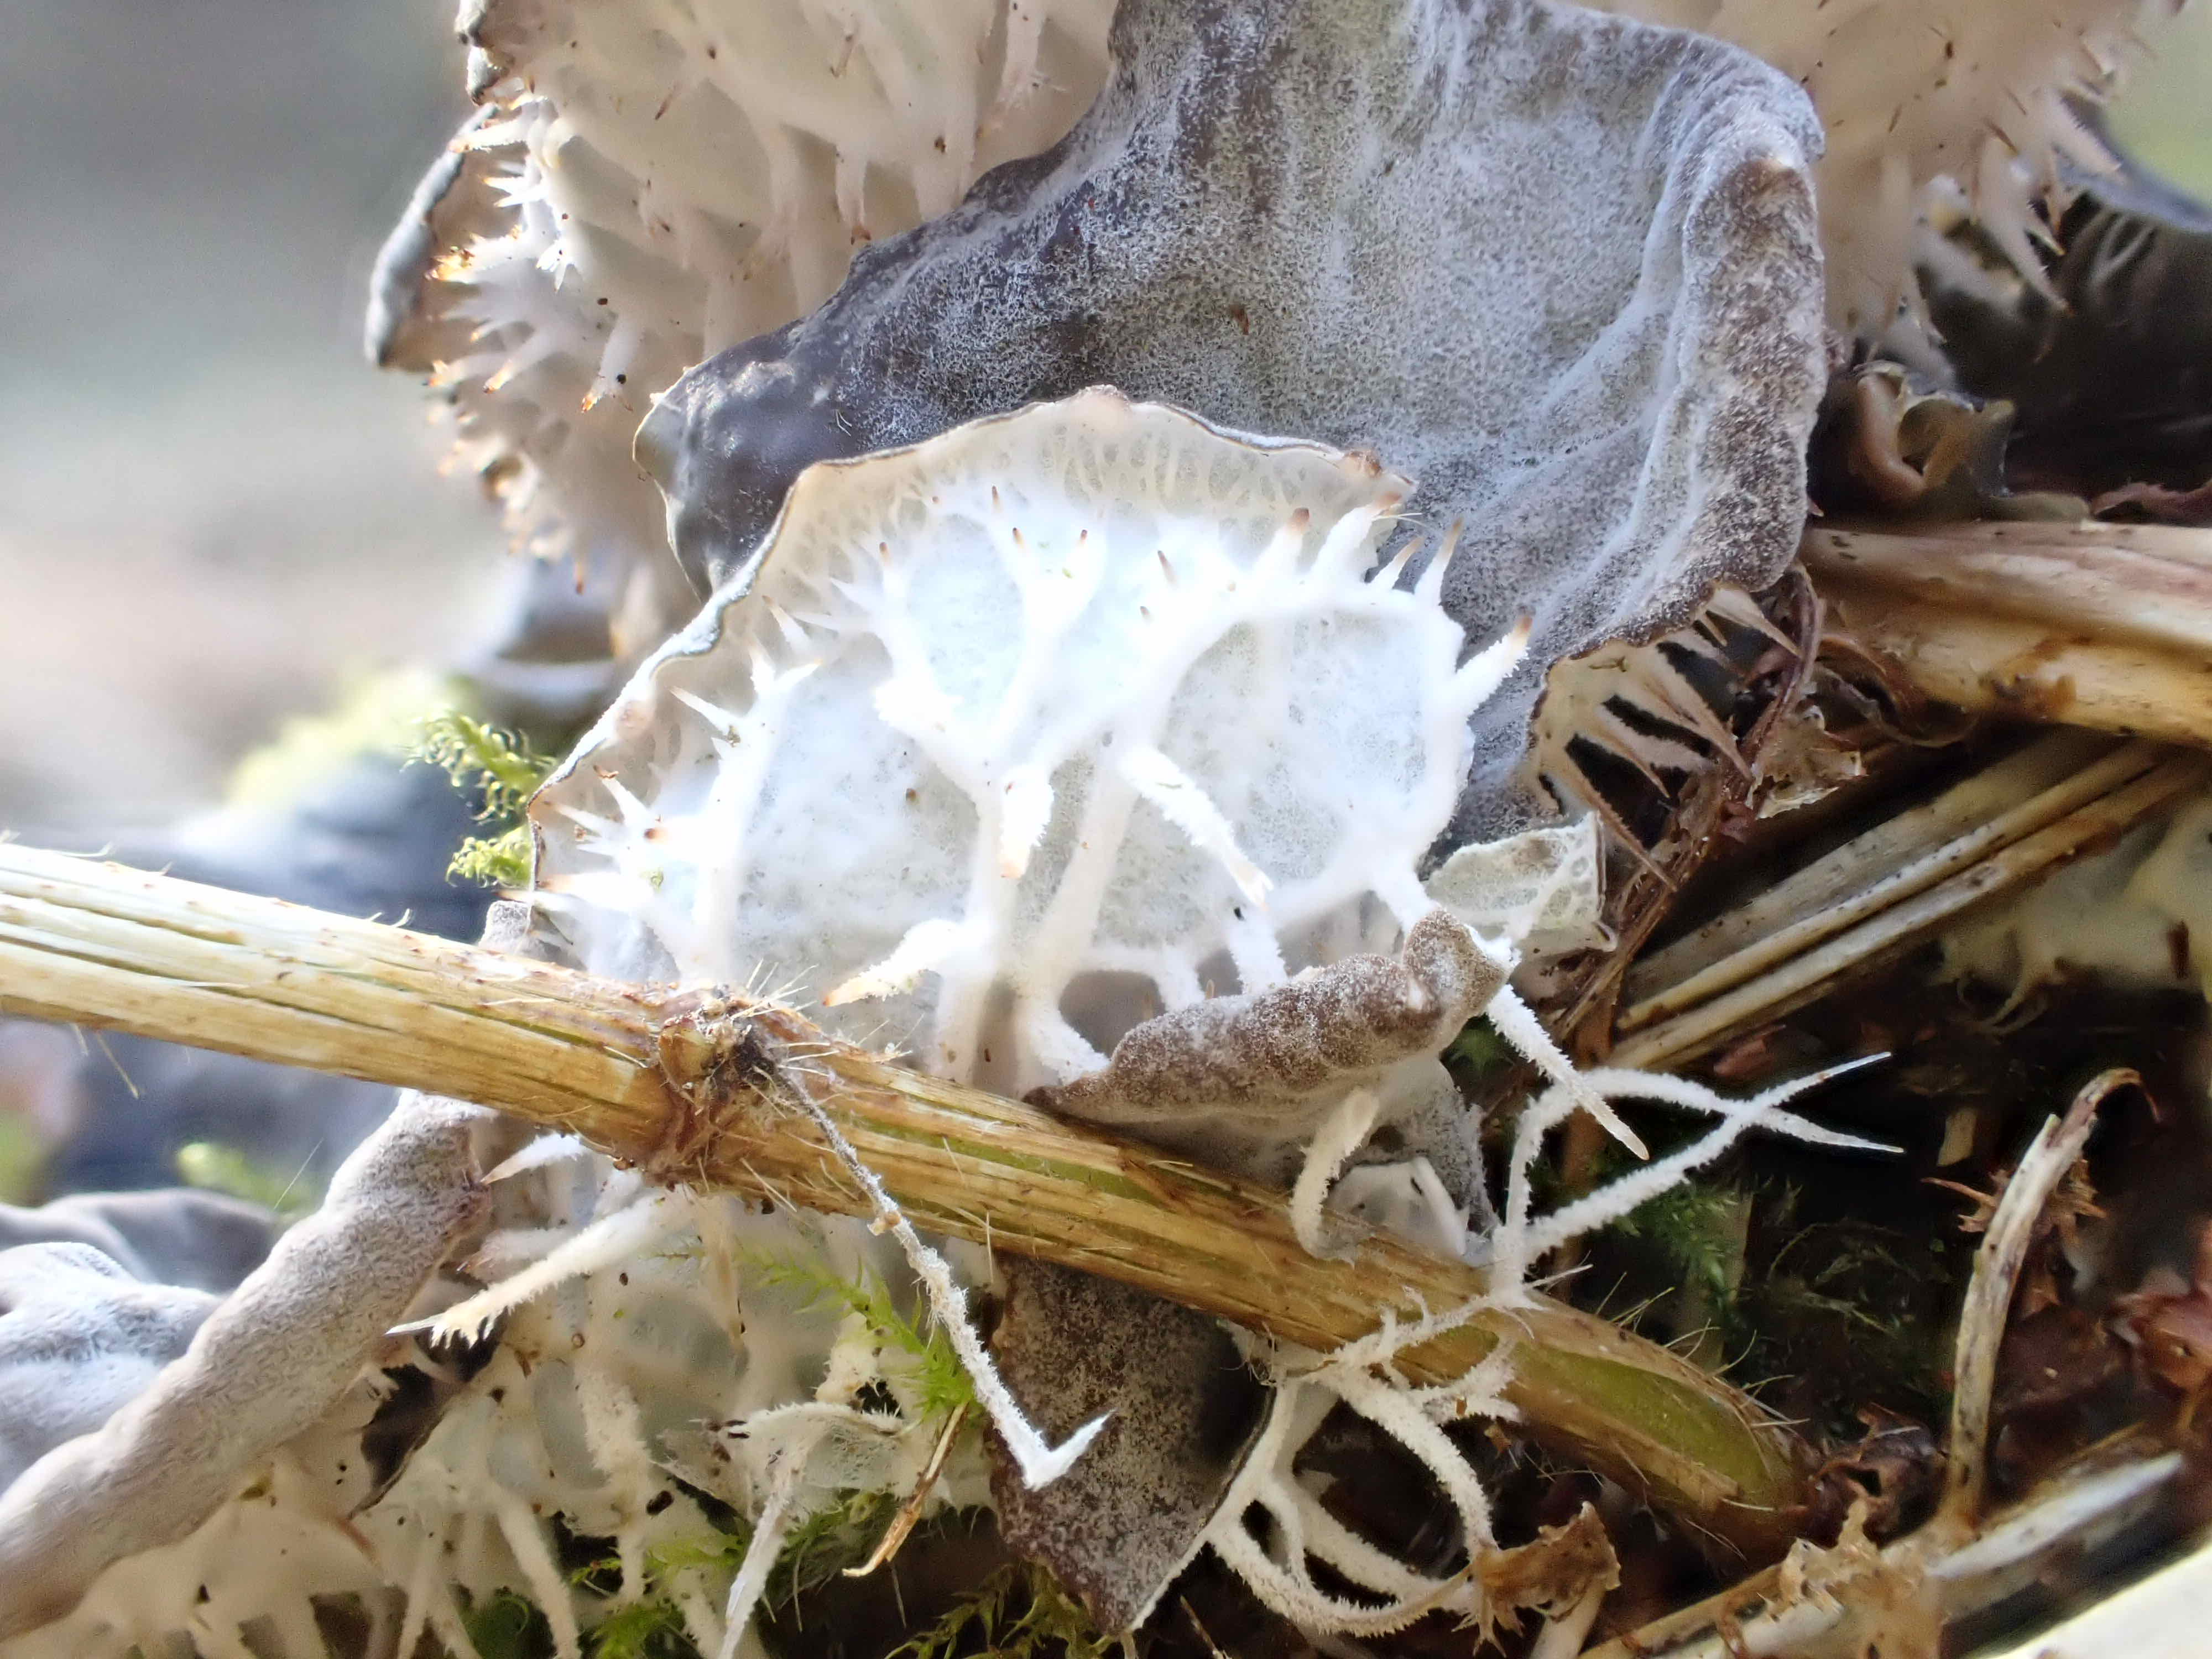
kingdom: Fungi
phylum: Ascomycota
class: Lecanoromycetes
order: Peltigerales
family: Peltigeraceae
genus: Peltigera
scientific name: Peltigera membranacea
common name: tynd skjoldlav
